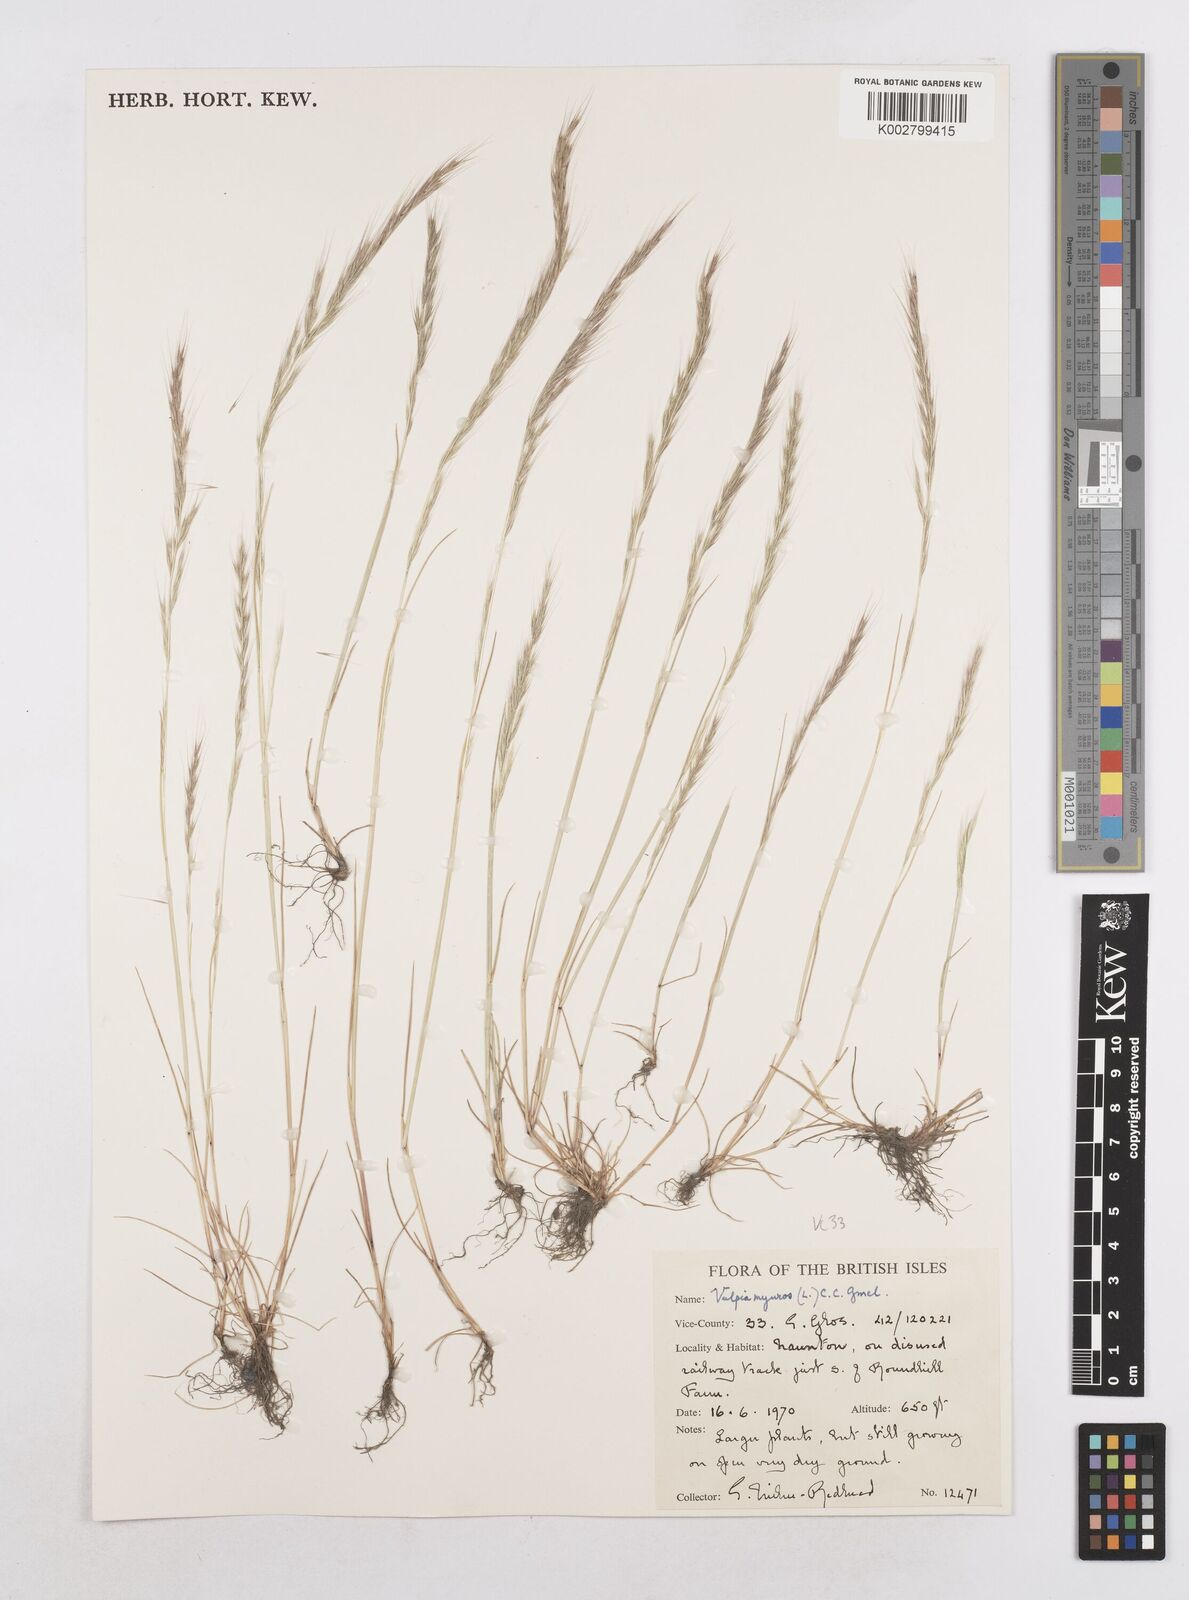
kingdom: Plantae
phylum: Tracheophyta
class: Liliopsida
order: Poales
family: Poaceae
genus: Festuca
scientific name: Festuca myuros
